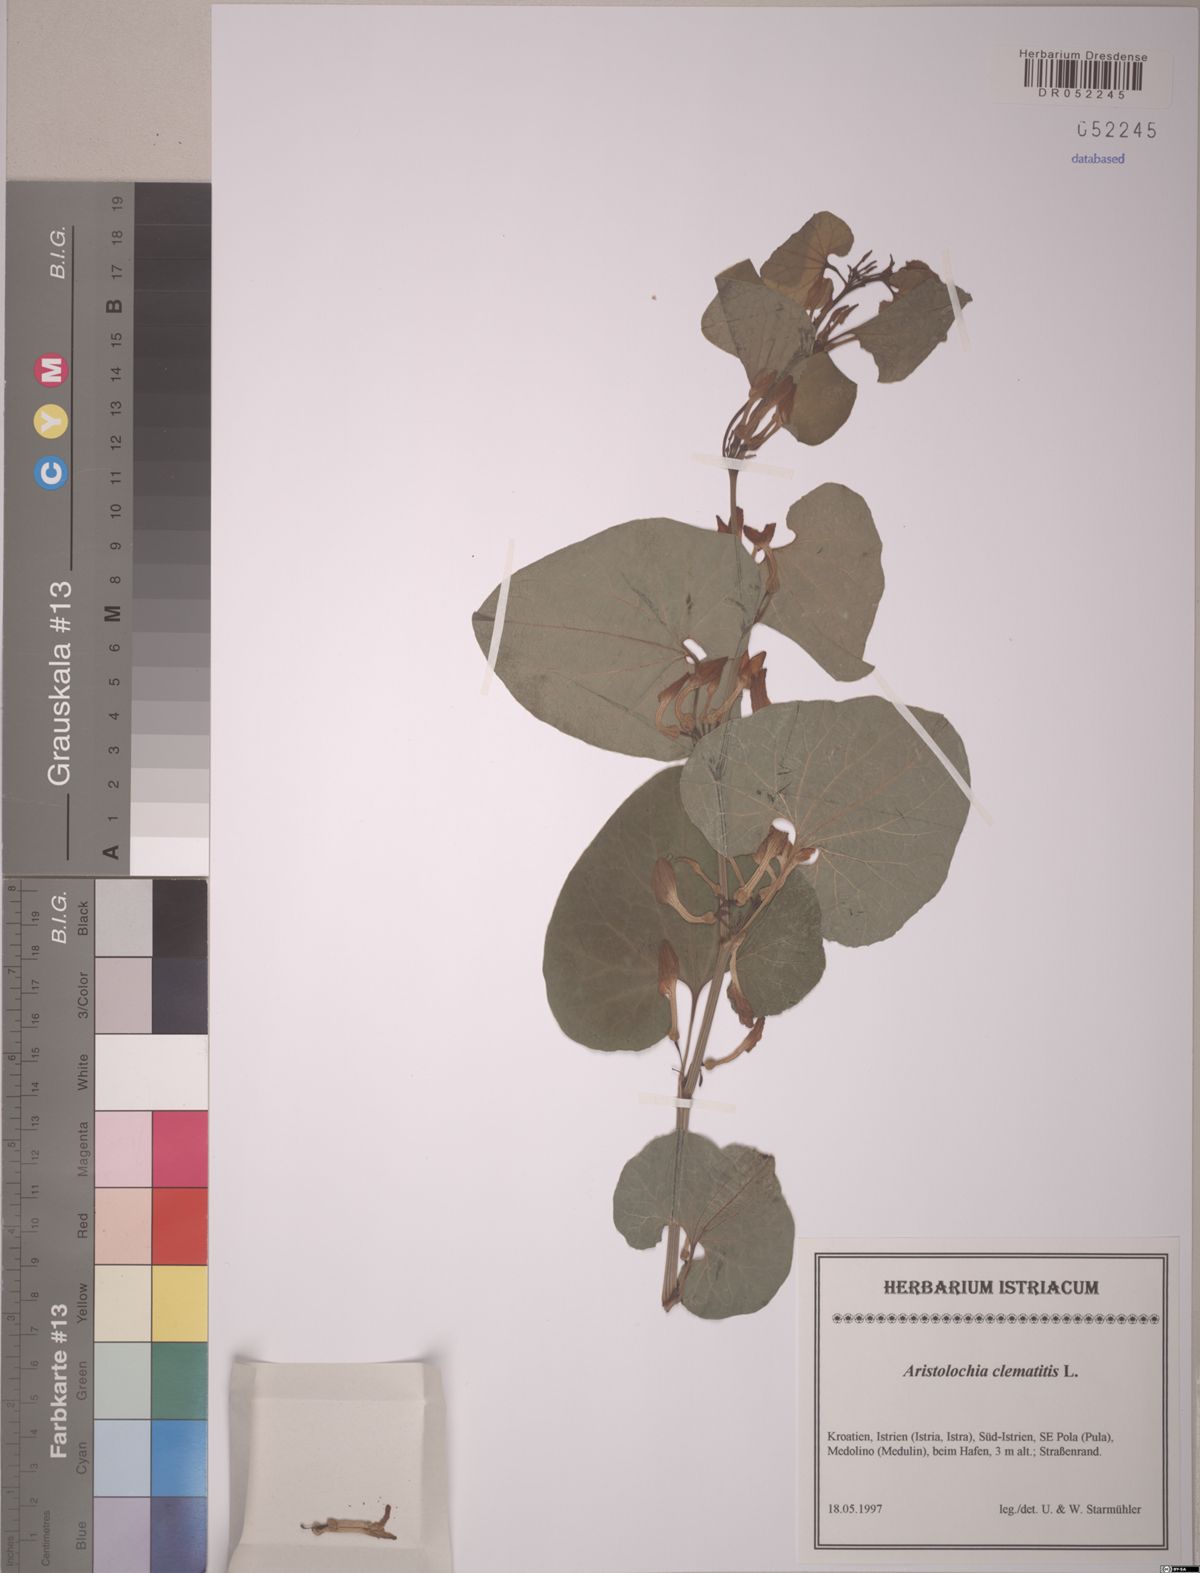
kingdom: Plantae
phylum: Tracheophyta
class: Magnoliopsida
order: Piperales
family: Aristolochiaceae
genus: Aristolochia
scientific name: Aristolochia clematitis
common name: Birthwort
